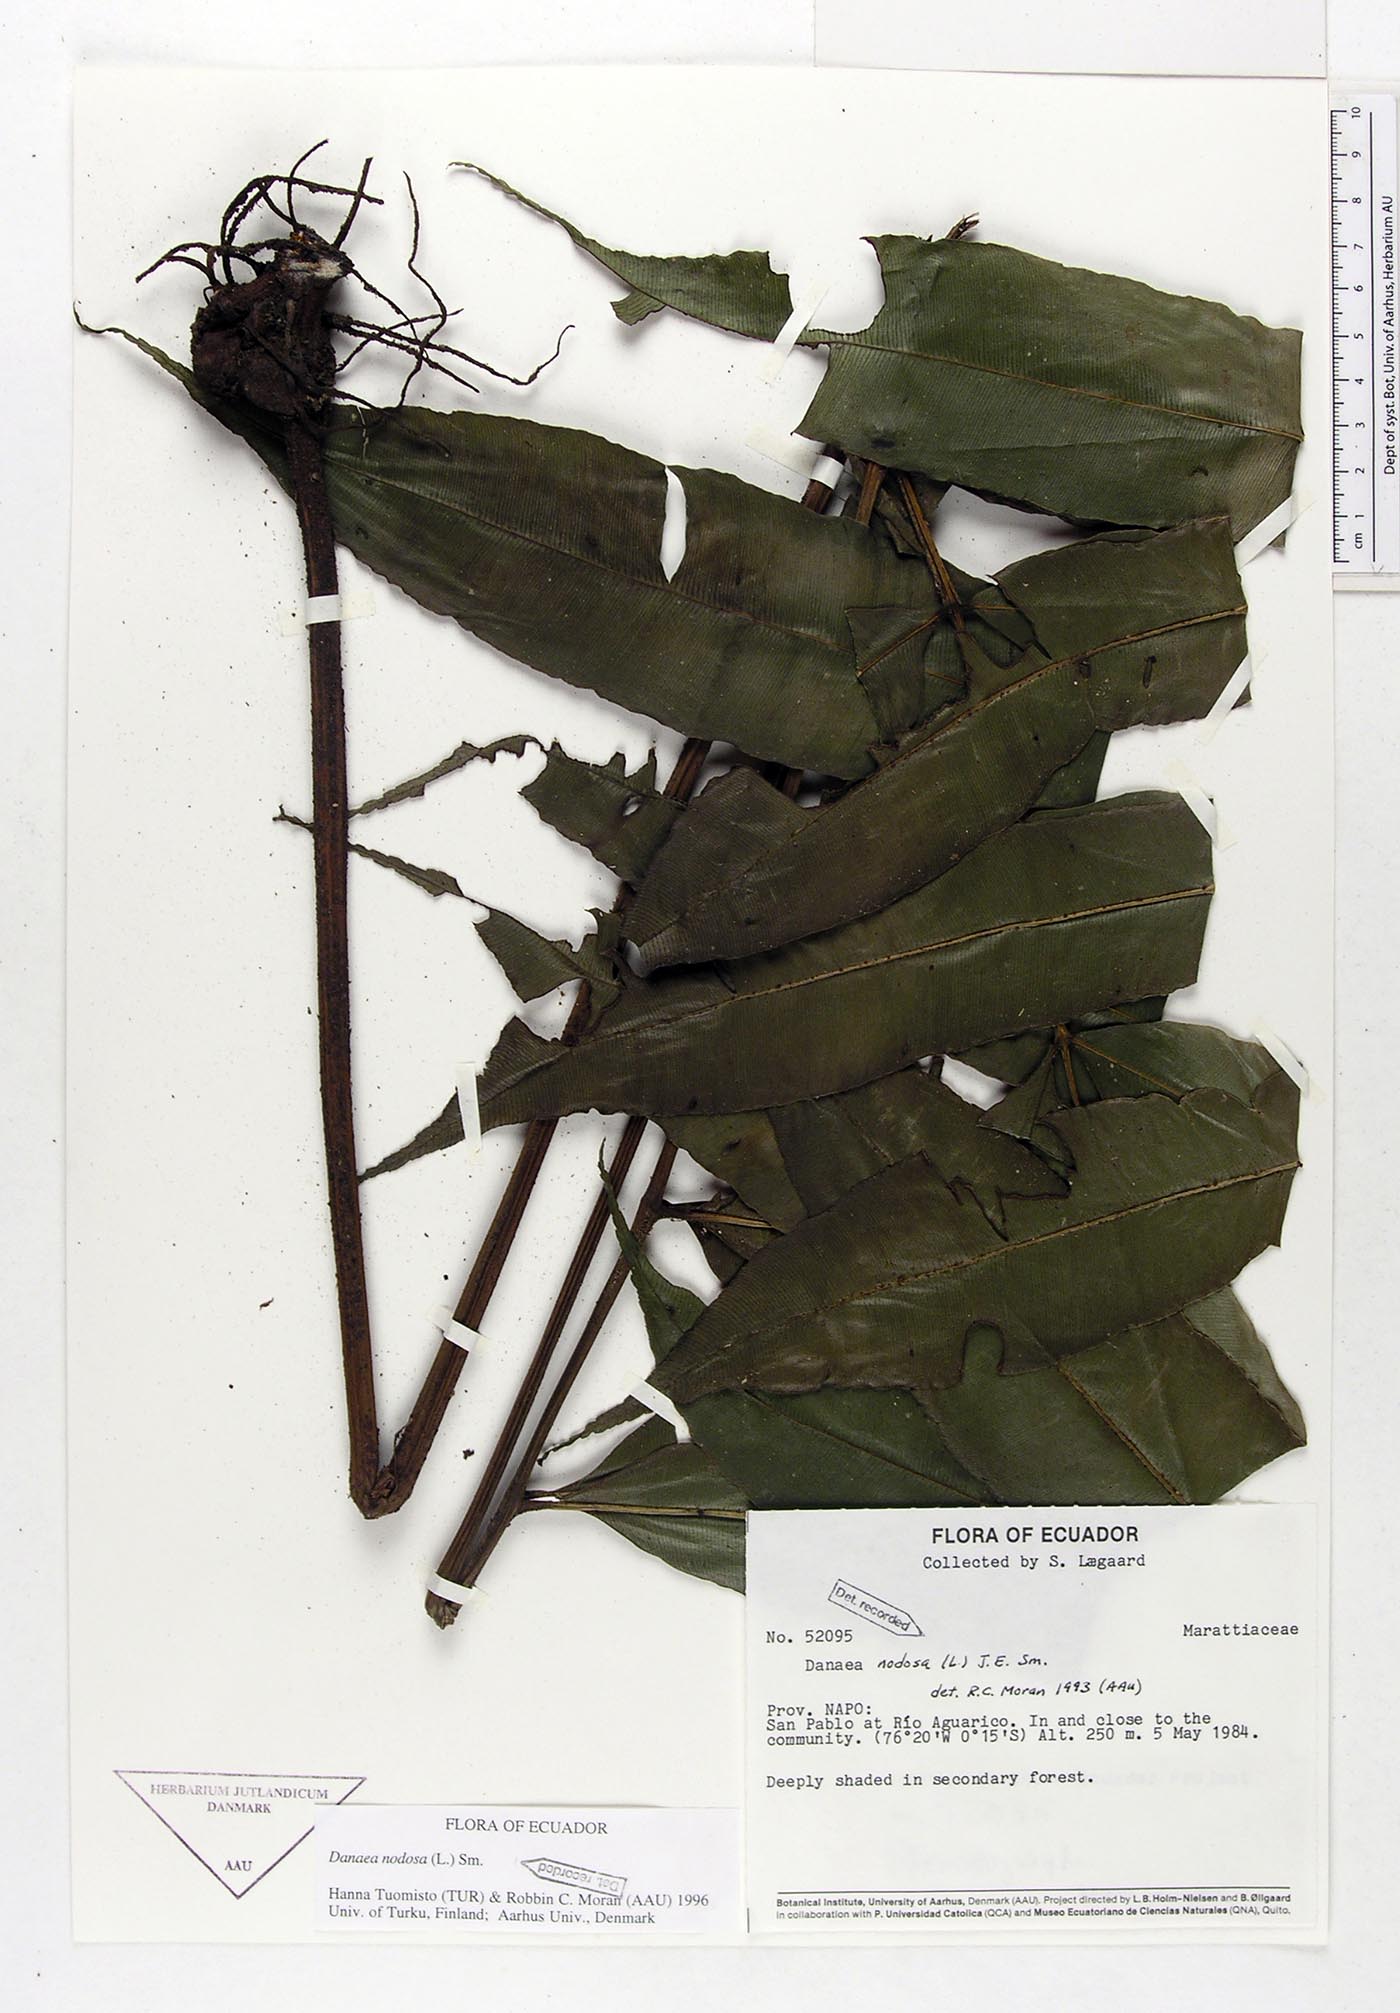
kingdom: Plantae
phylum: Tracheophyta
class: Polypodiopsida
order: Marattiales
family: Marattiaceae
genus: Danaea
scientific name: Danaea nodosa
